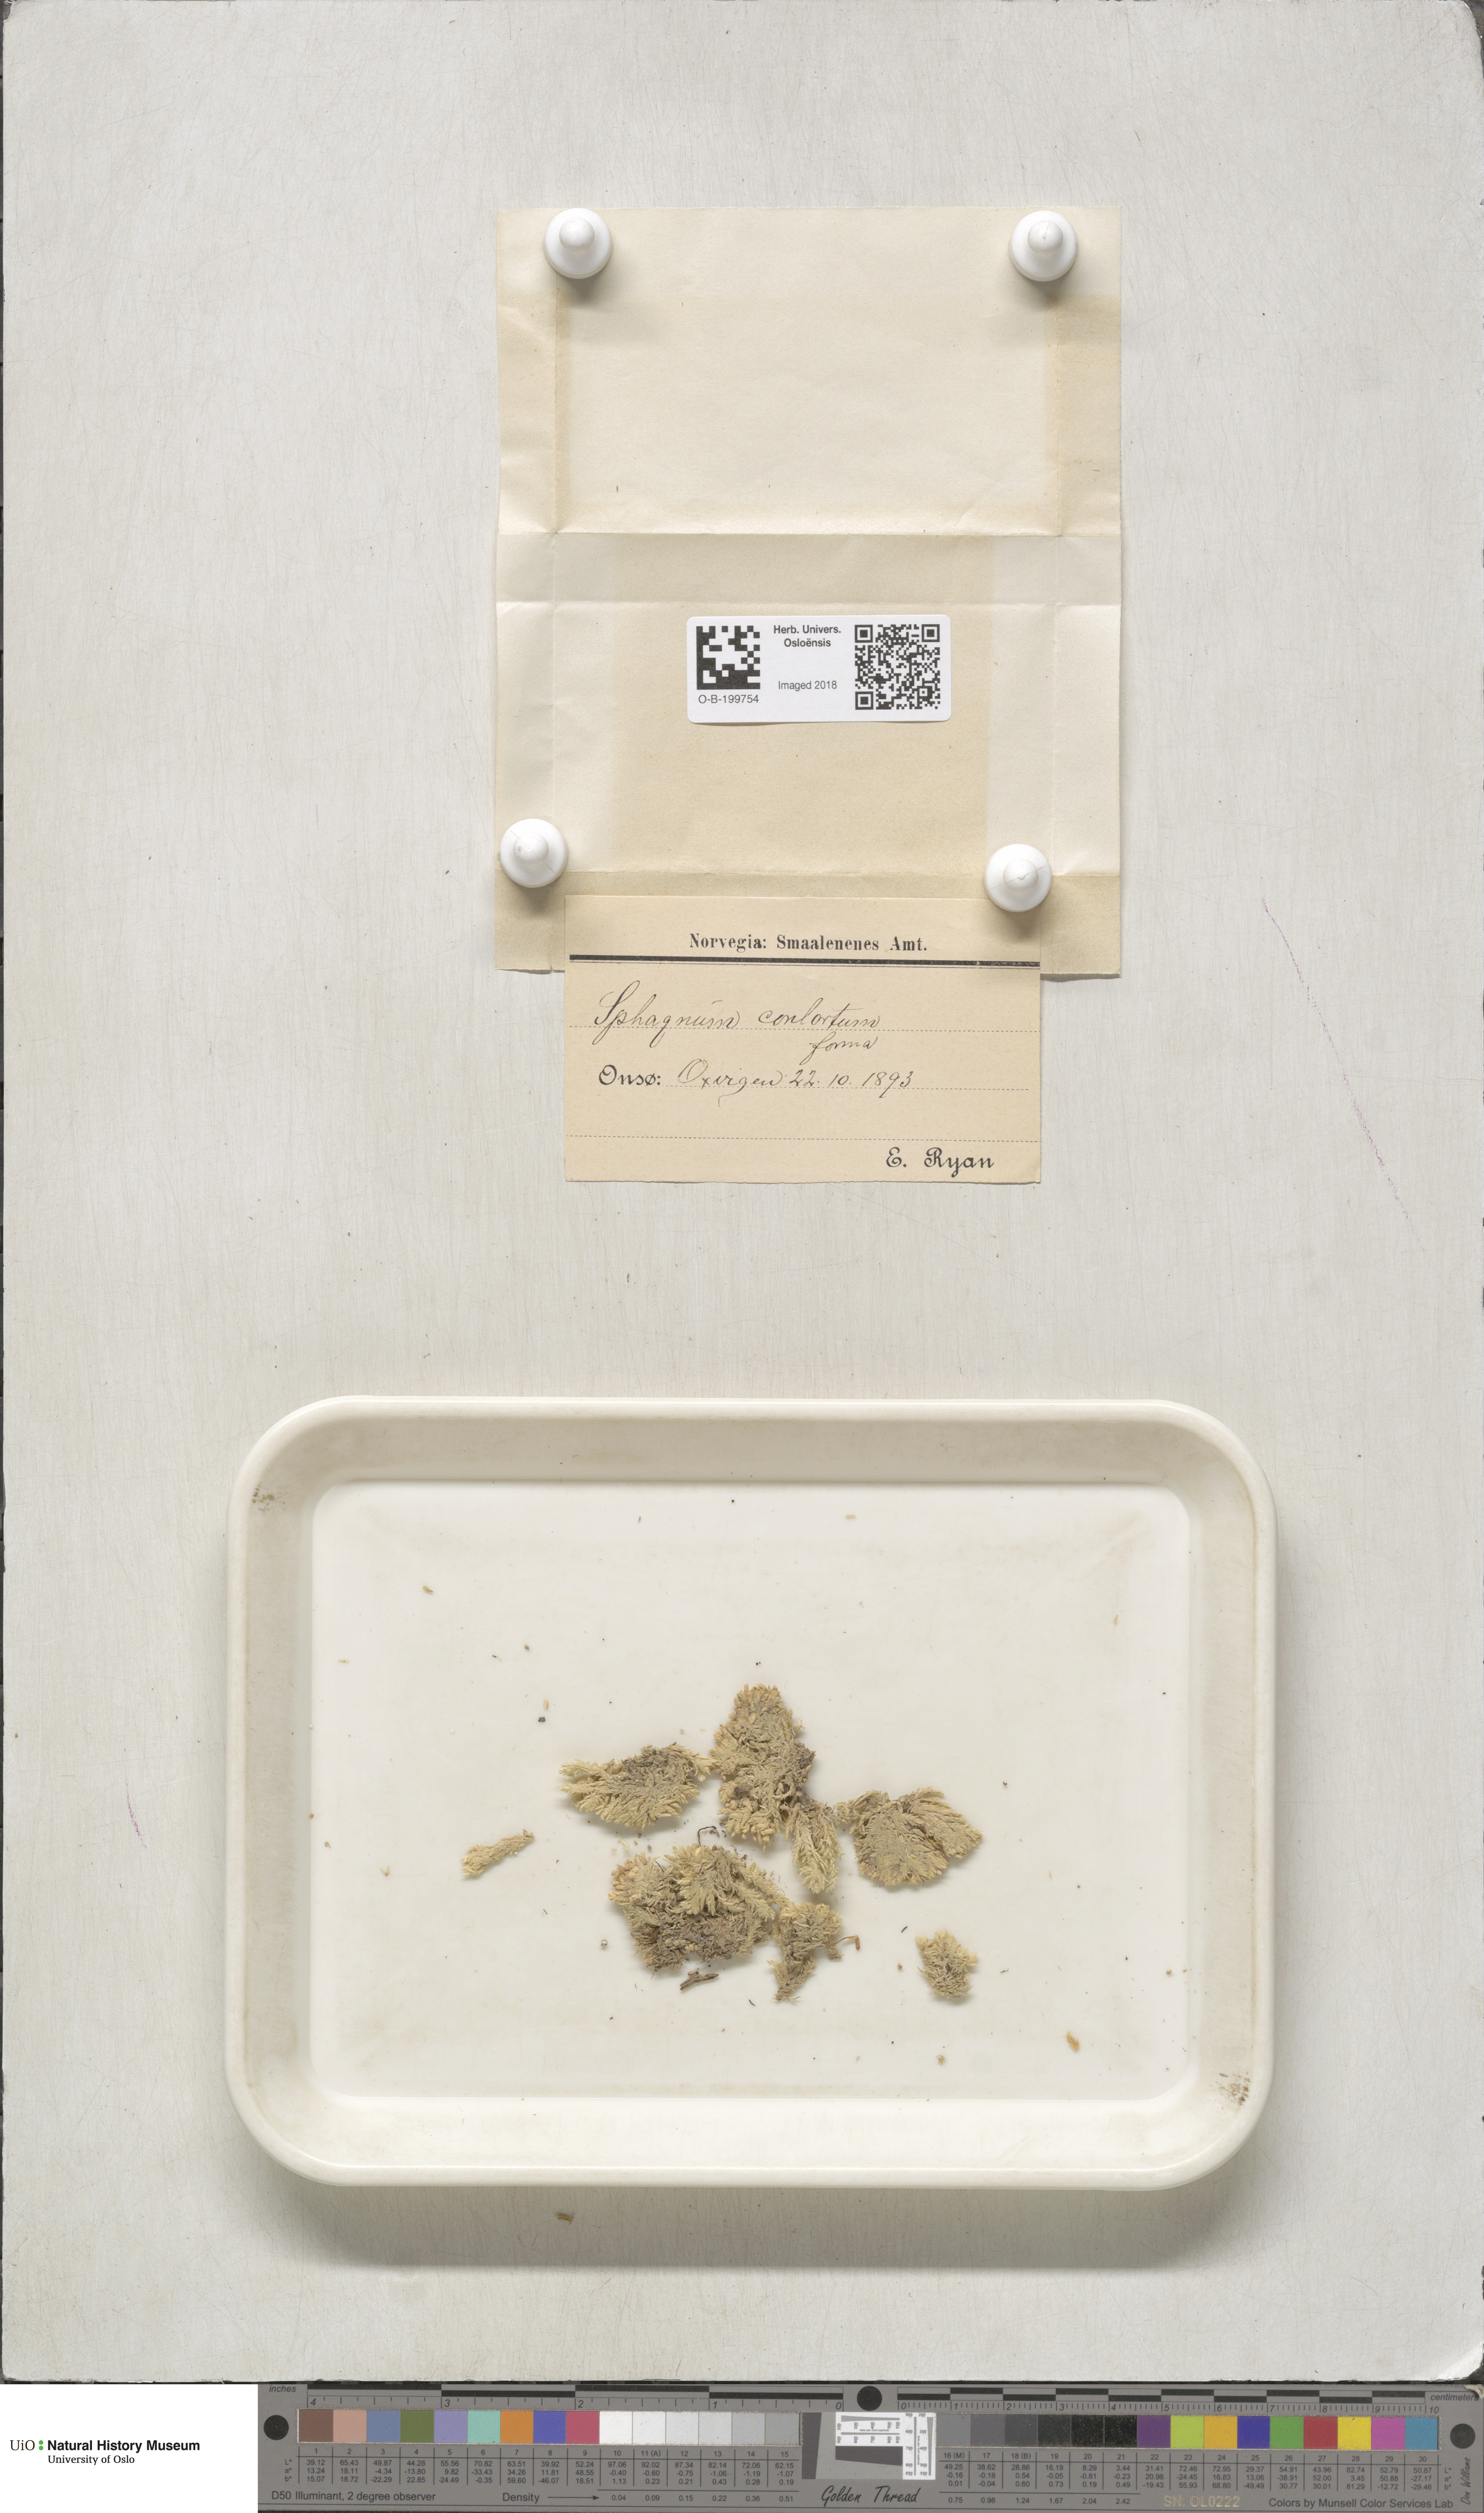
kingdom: Plantae
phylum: Bryophyta
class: Sphagnopsida
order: Sphagnales
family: Sphagnaceae
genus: Sphagnum
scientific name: Sphagnum contortum
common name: Twisted peat moss
